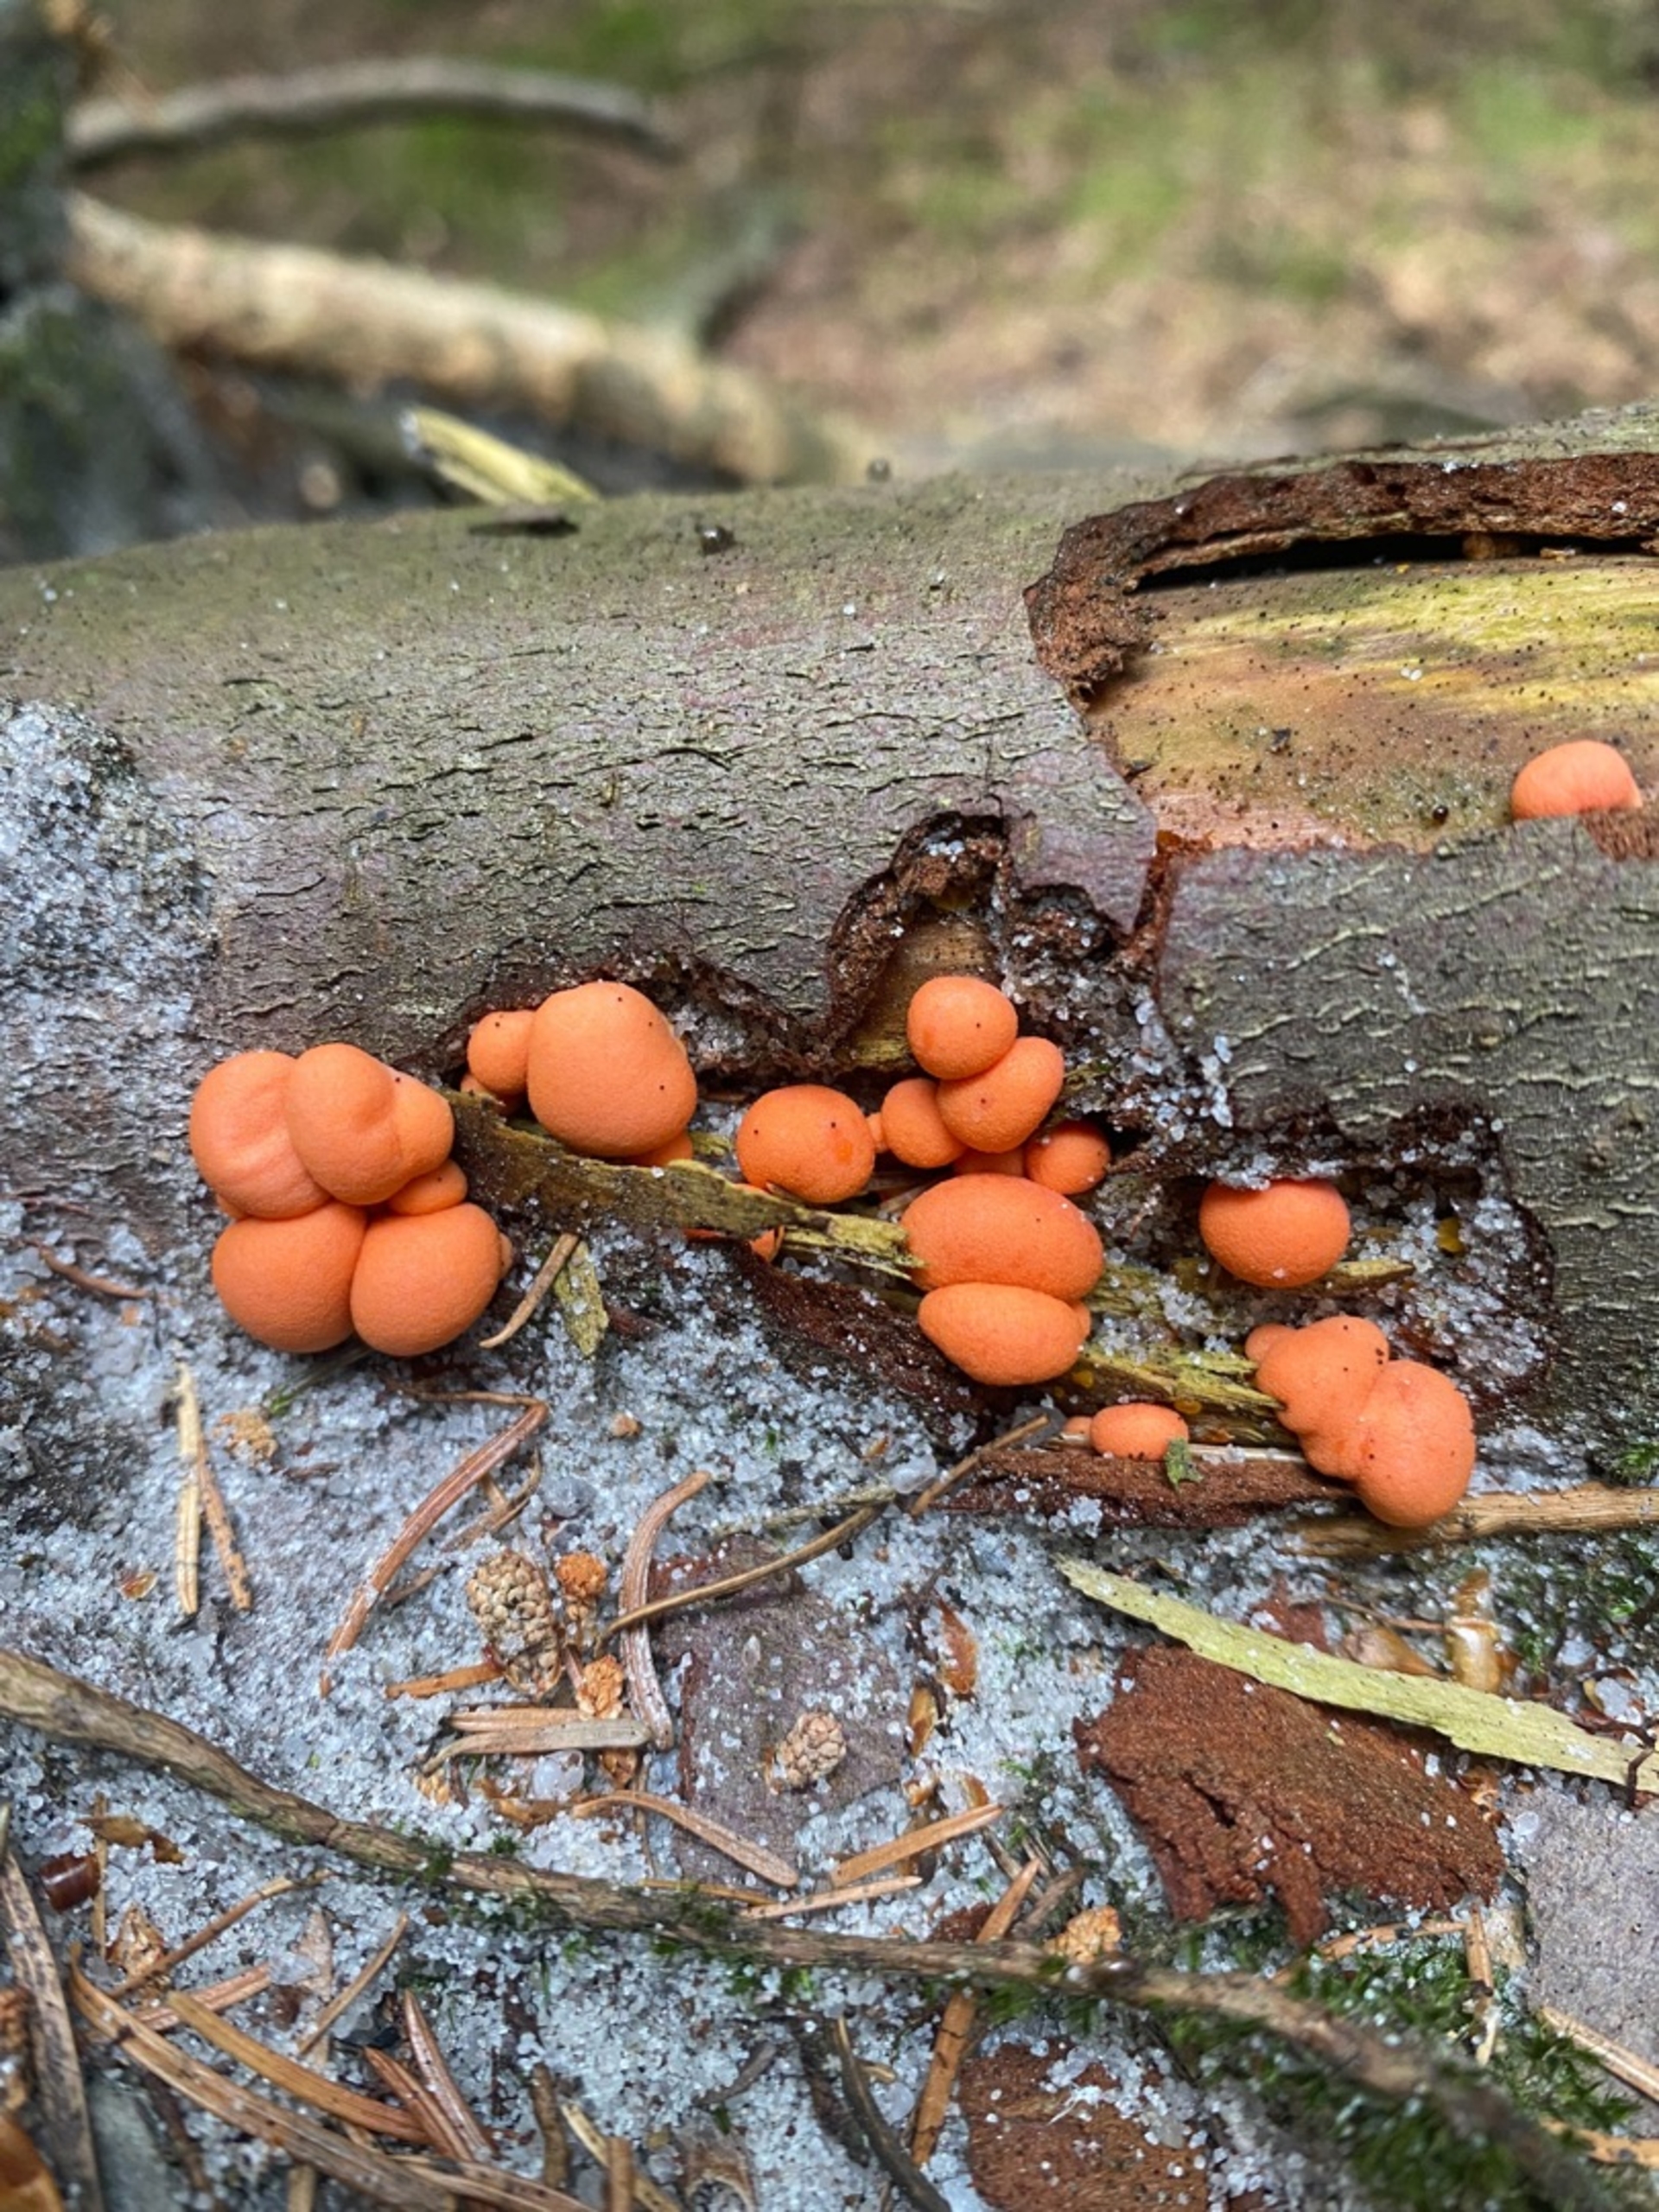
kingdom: Protozoa
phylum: Mycetozoa
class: Myxomycetes
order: Cribrariales
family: Tubiferaceae
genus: Lycogala
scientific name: Lycogala epidendrum
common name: Almindelig rødært
